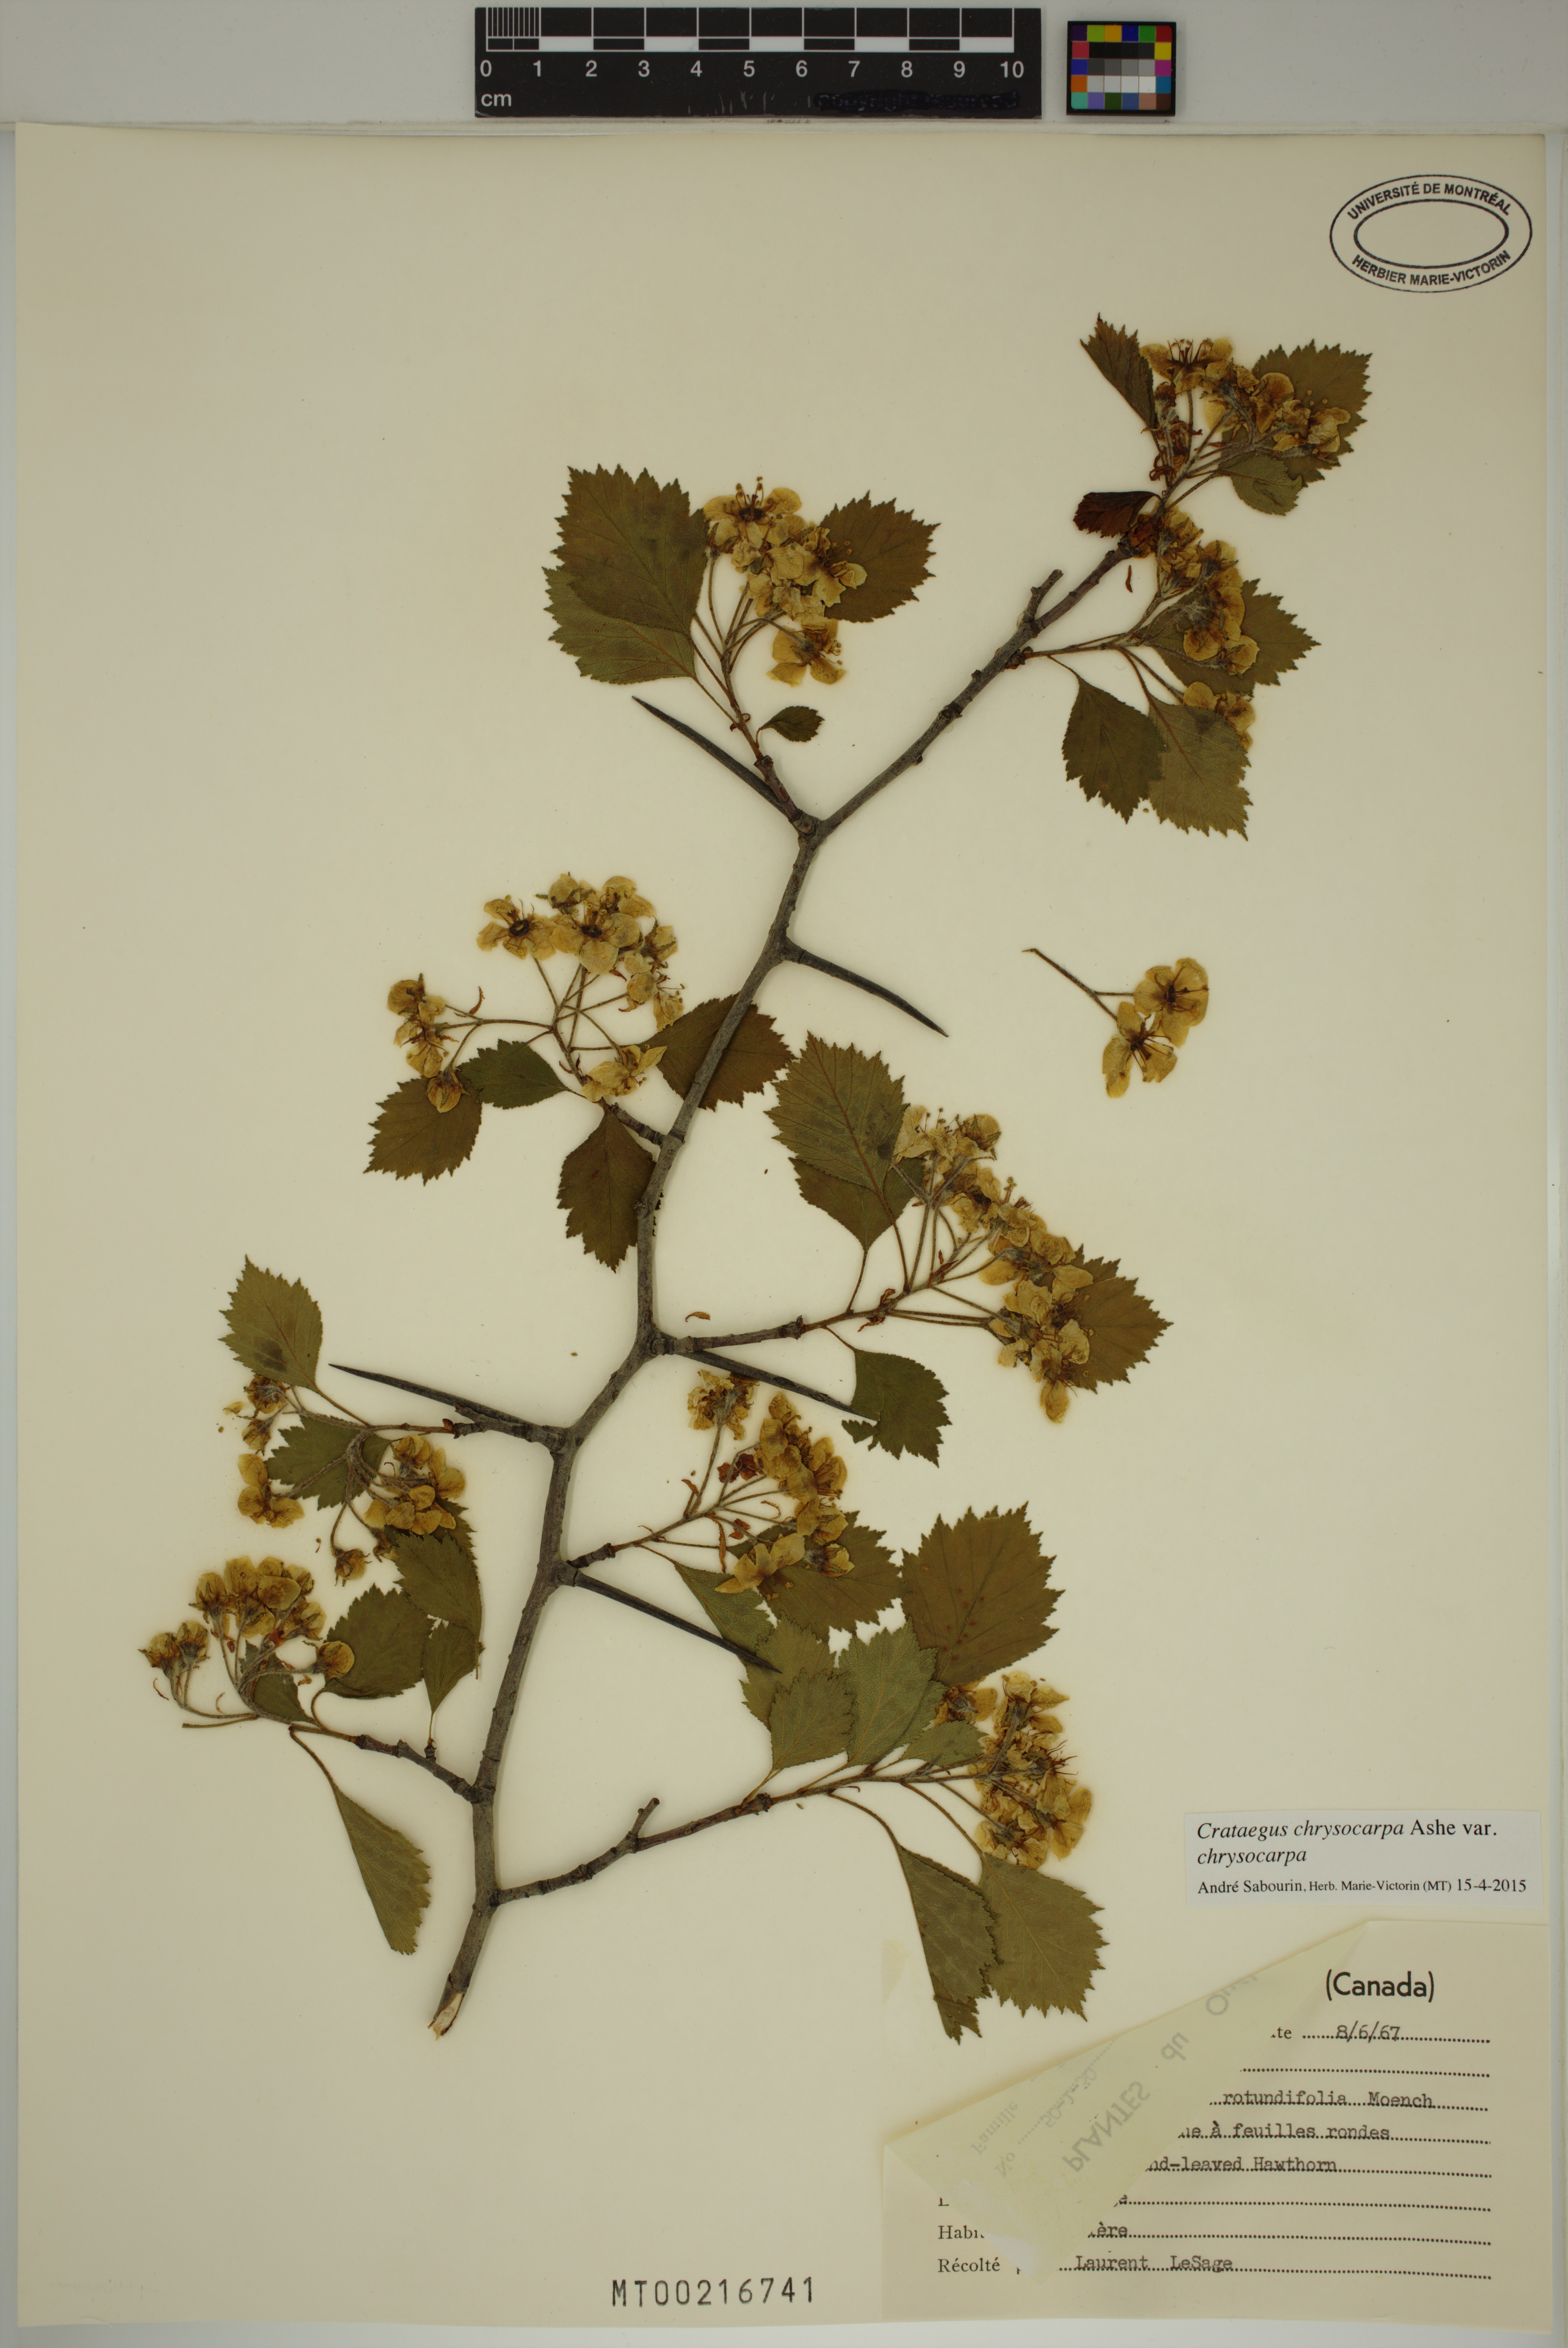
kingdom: Plantae
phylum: Tracheophyta
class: Magnoliopsida
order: Rosales
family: Rosaceae
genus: Crataegus
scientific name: Crataegus chrysocarpa
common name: Fire-berry hawthorn
